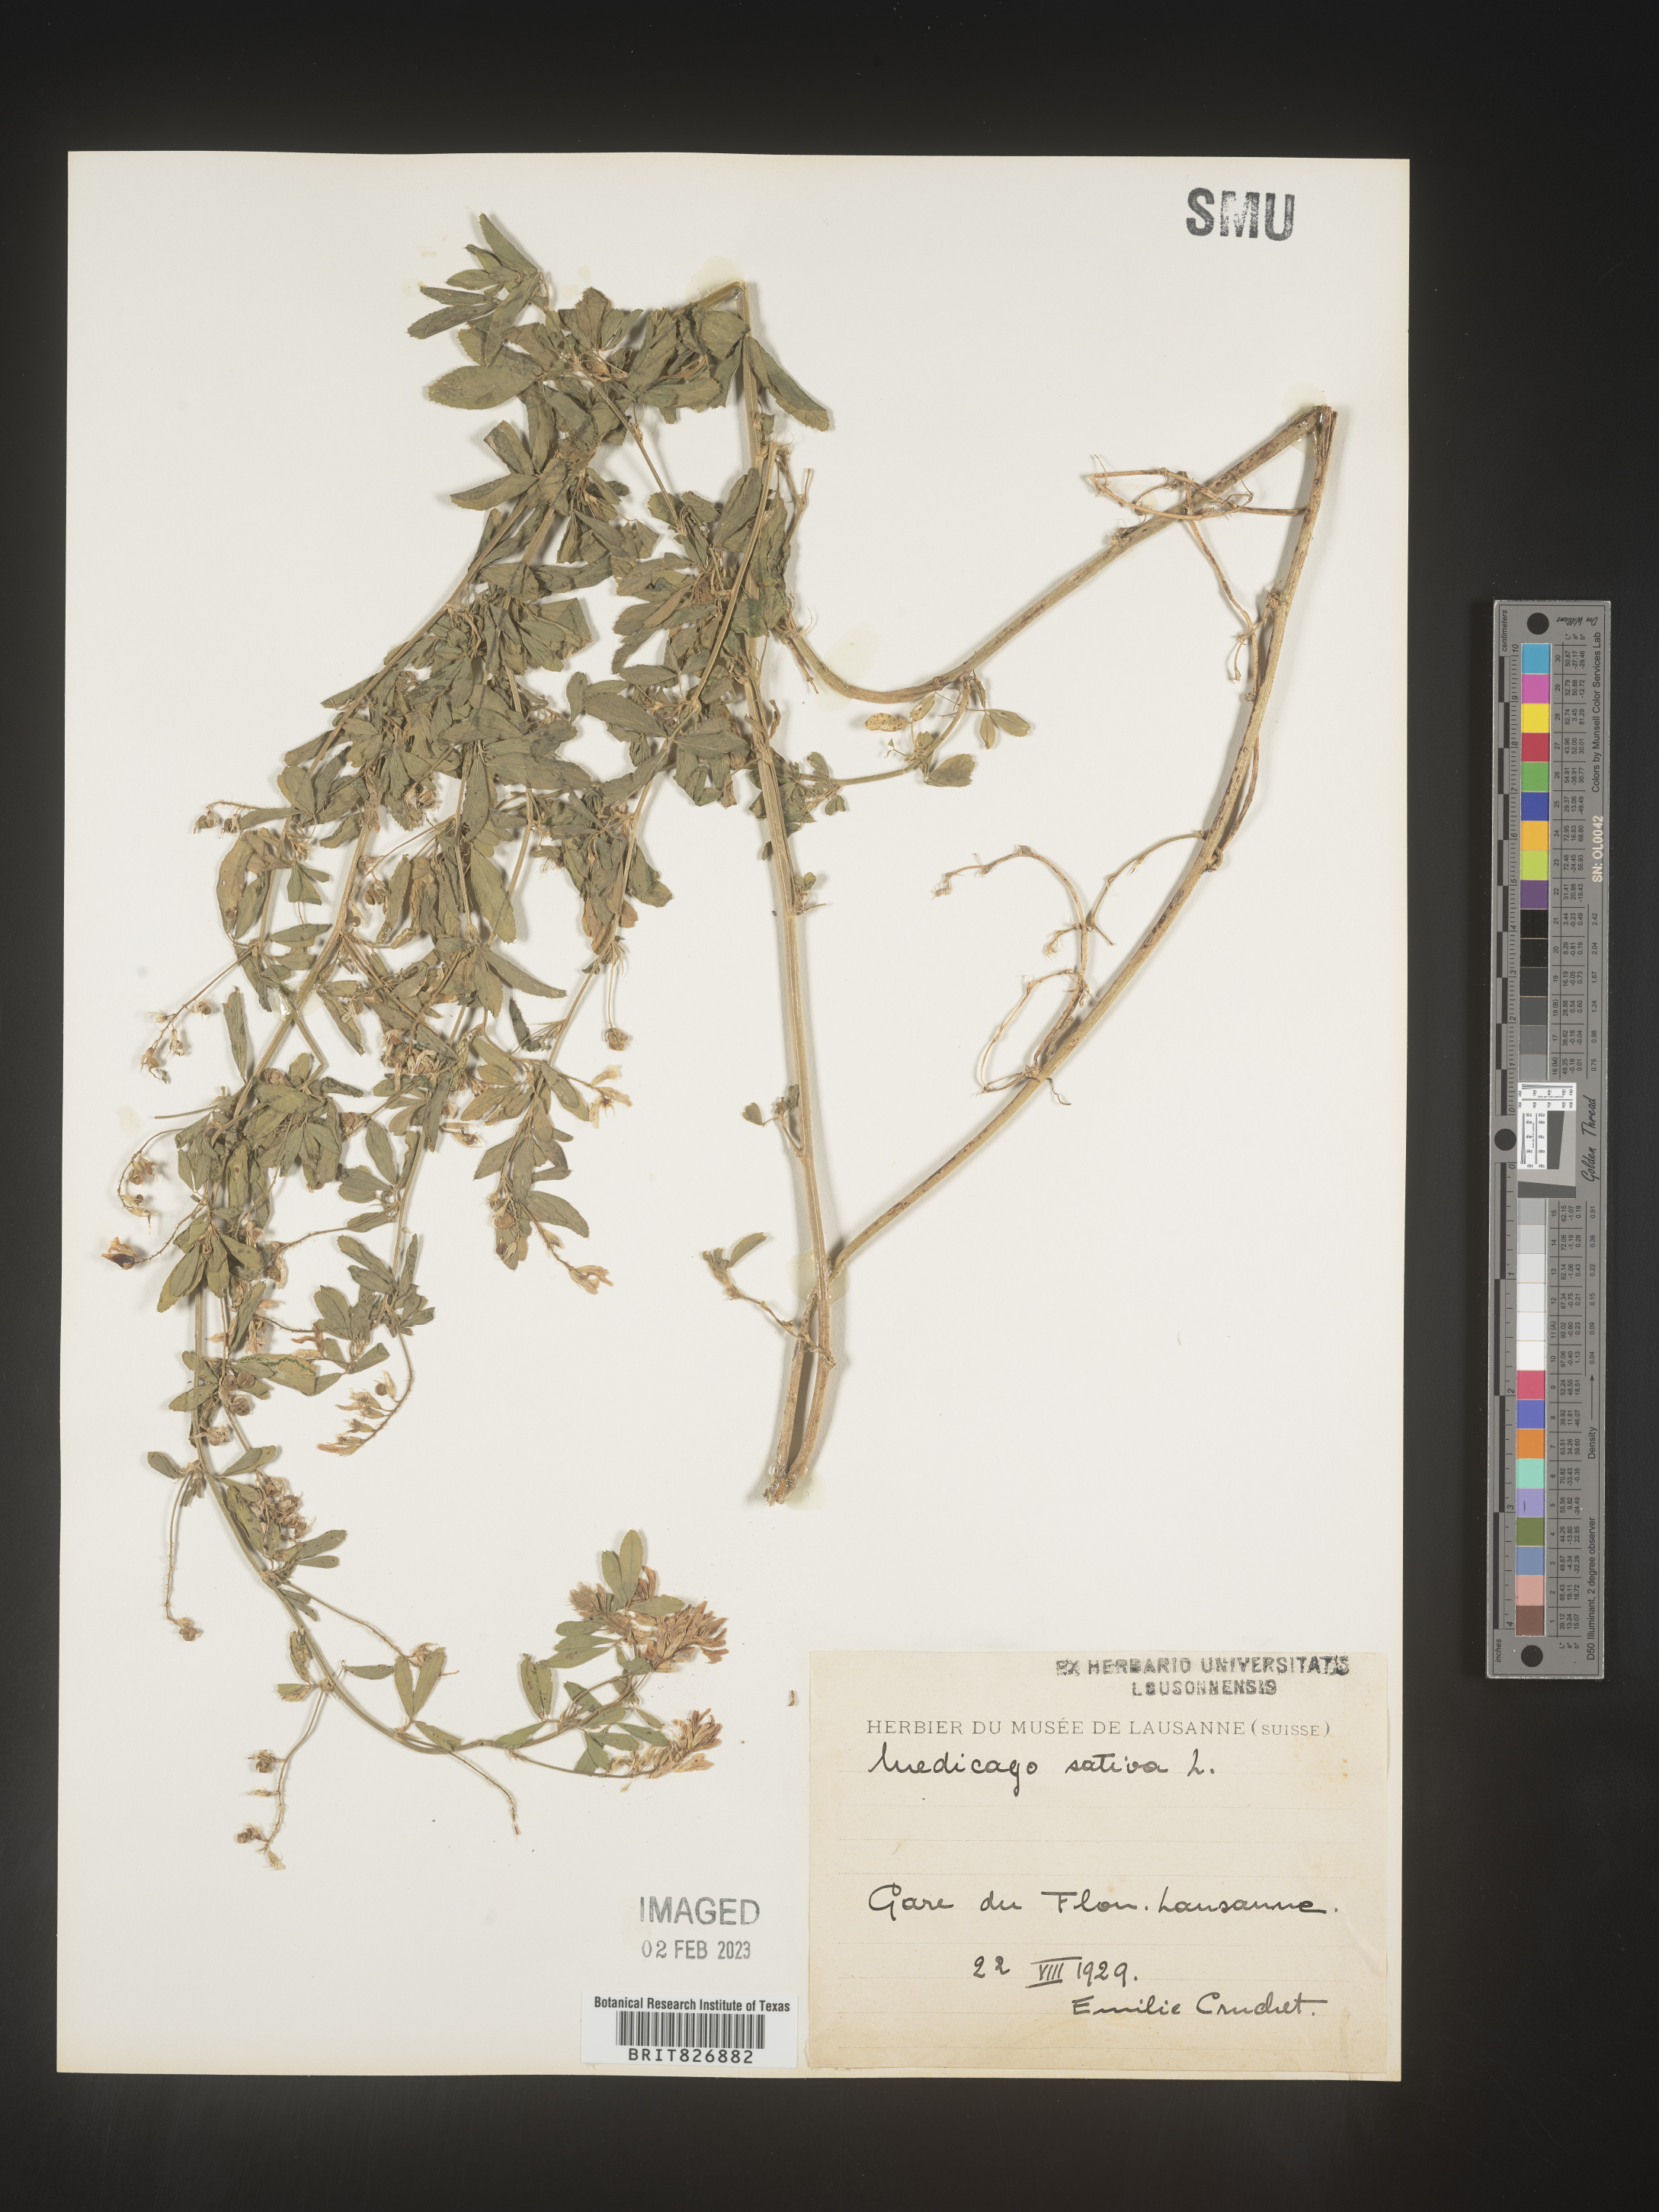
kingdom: Plantae
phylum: Tracheophyta
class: Magnoliopsida
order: Fabales
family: Fabaceae
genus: Medicago
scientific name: Medicago
